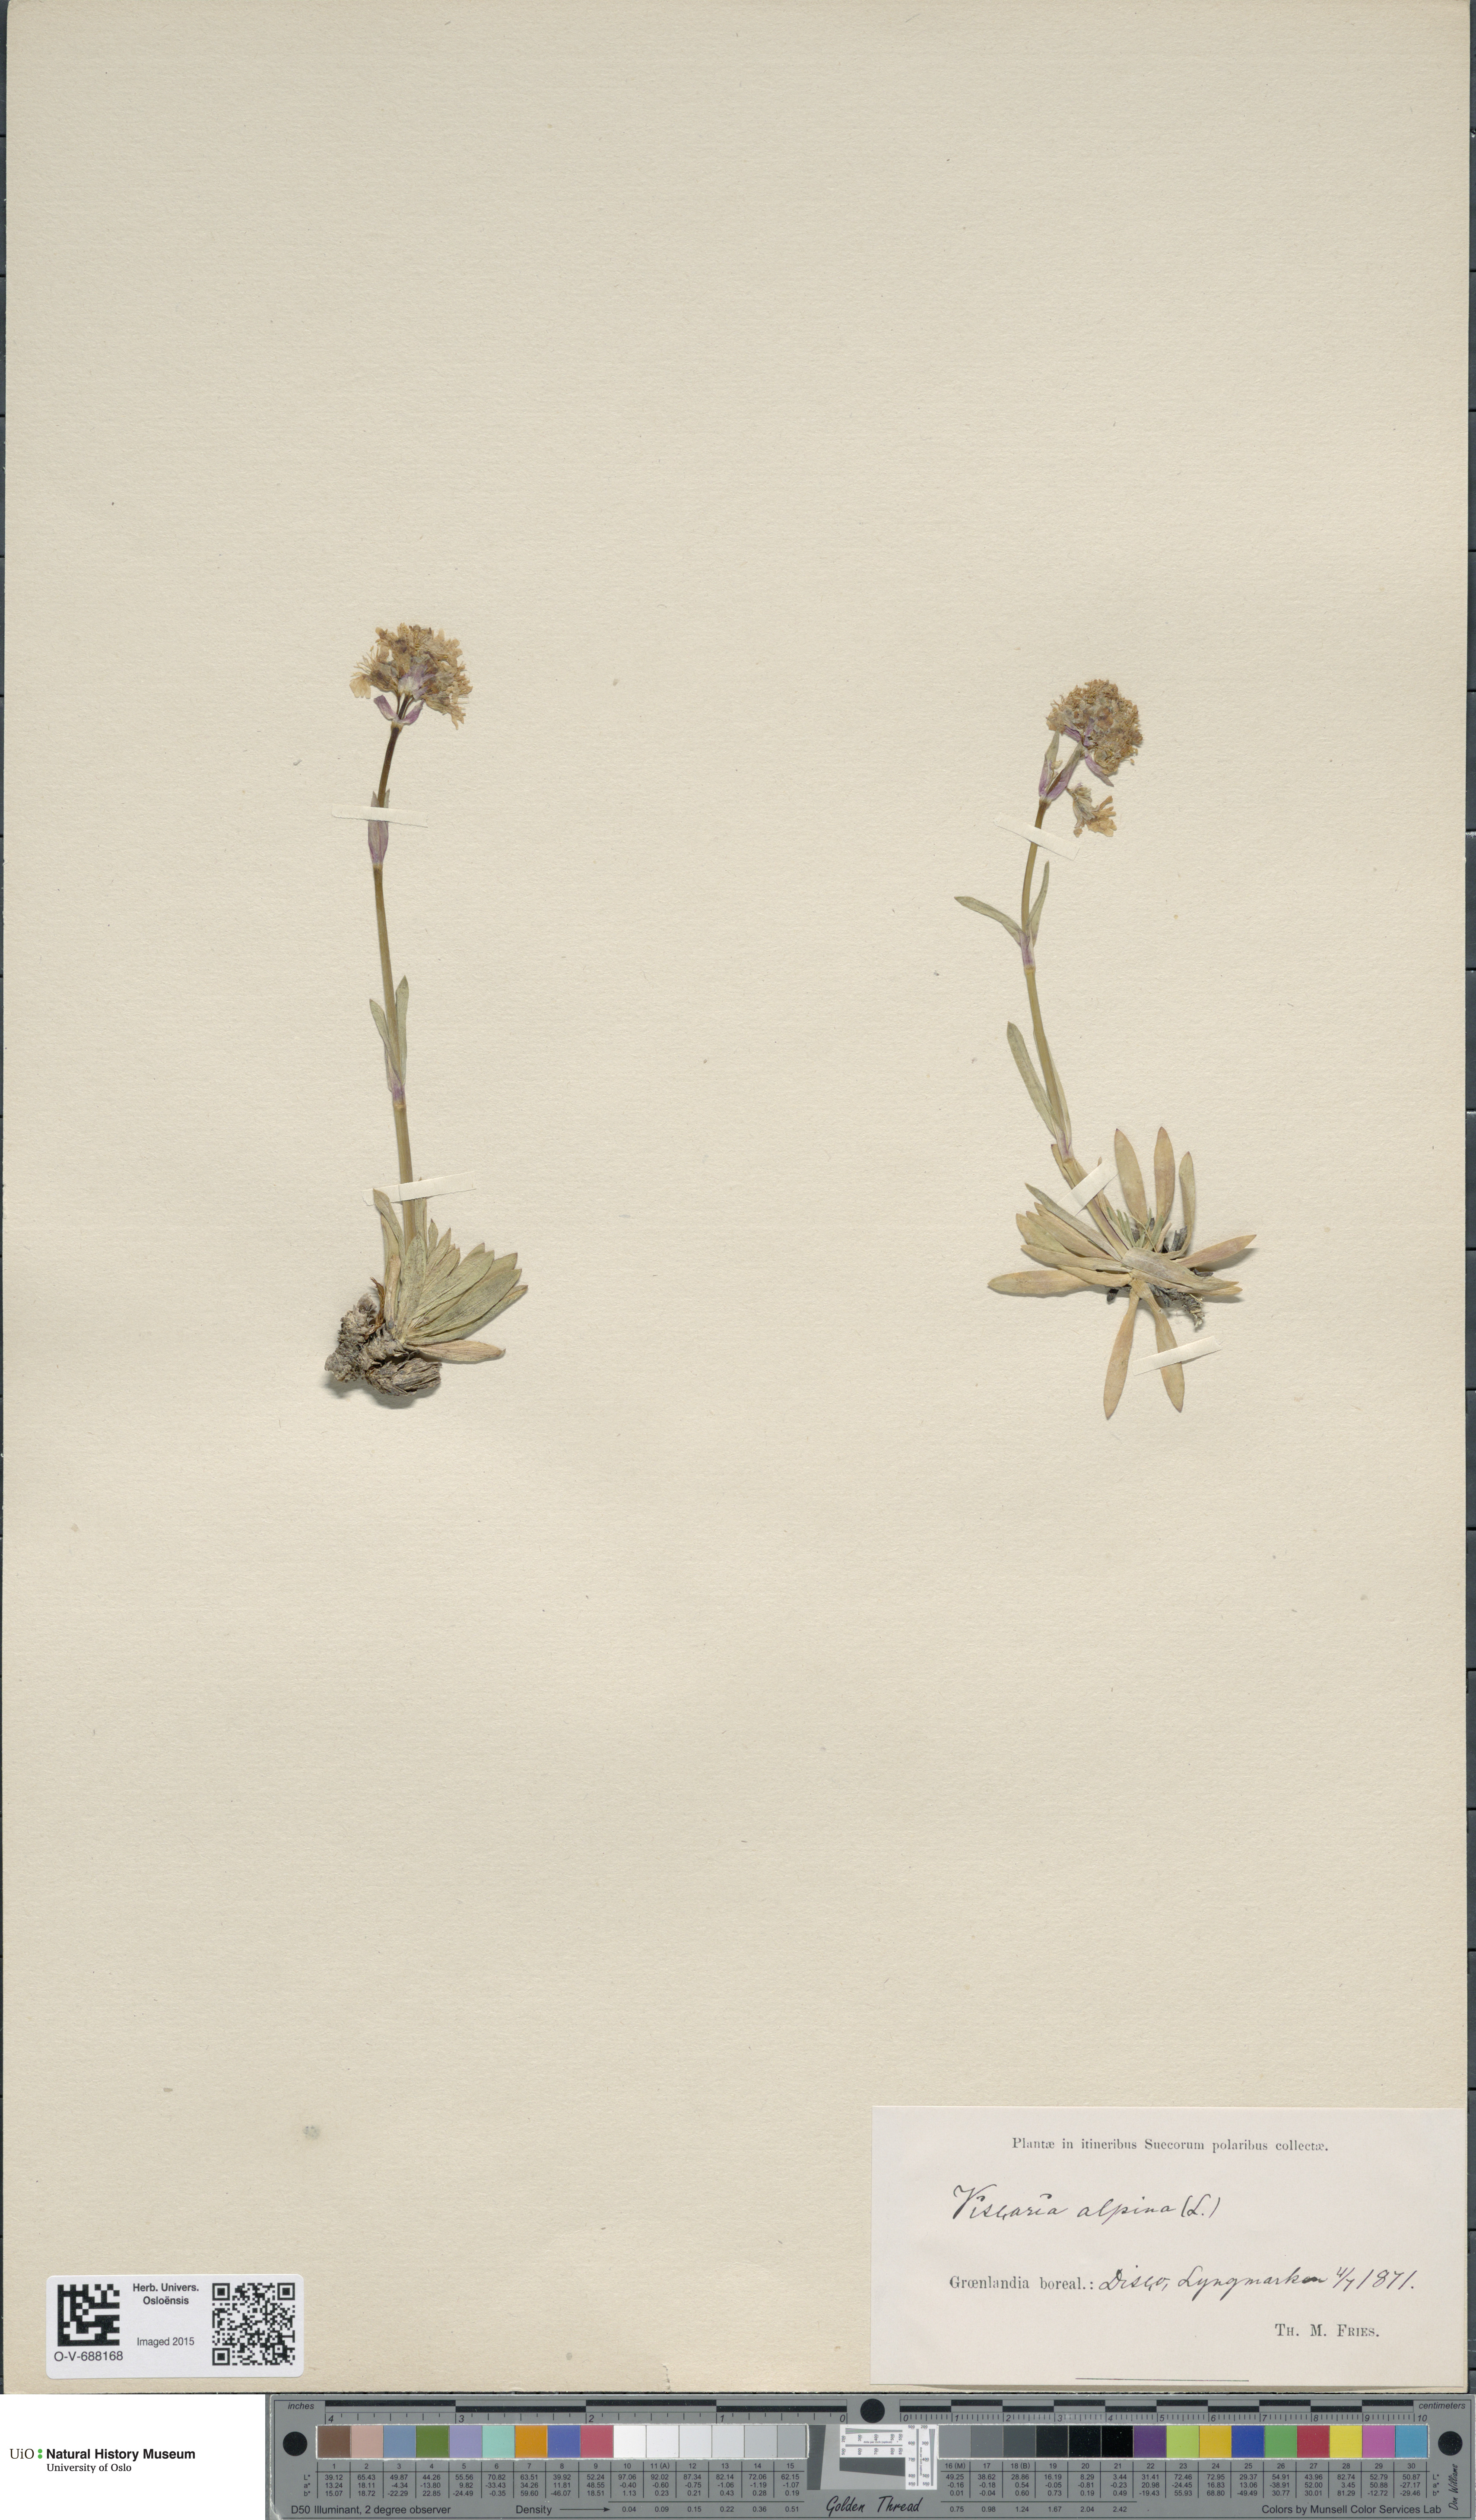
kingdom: Plantae
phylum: Tracheophyta
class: Magnoliopsida
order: Caryophyllales
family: Caryophyllaceae
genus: Viscaria
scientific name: Viscaria alpina
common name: Alpine campion
